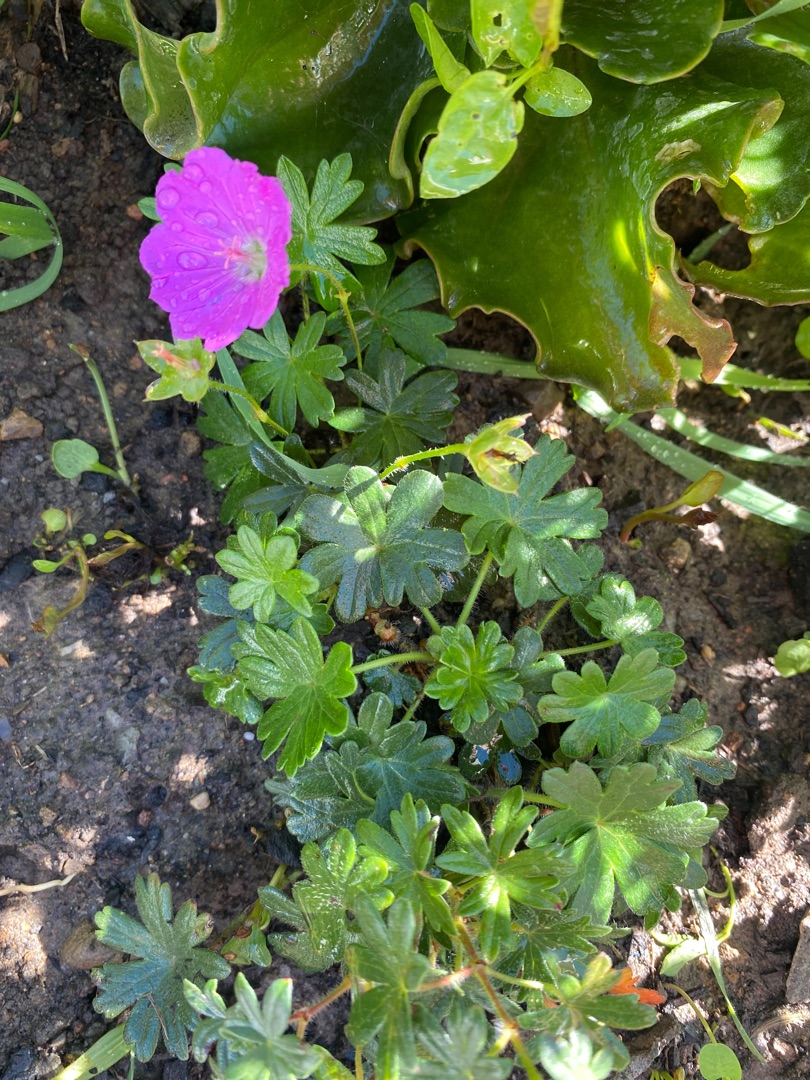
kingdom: Plantae
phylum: Tracheophyta
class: Magnoliopsida
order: Geraniales
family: Geraniaceae
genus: Geranium
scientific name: Geranium sanguineum
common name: Blodrød storkenæb
